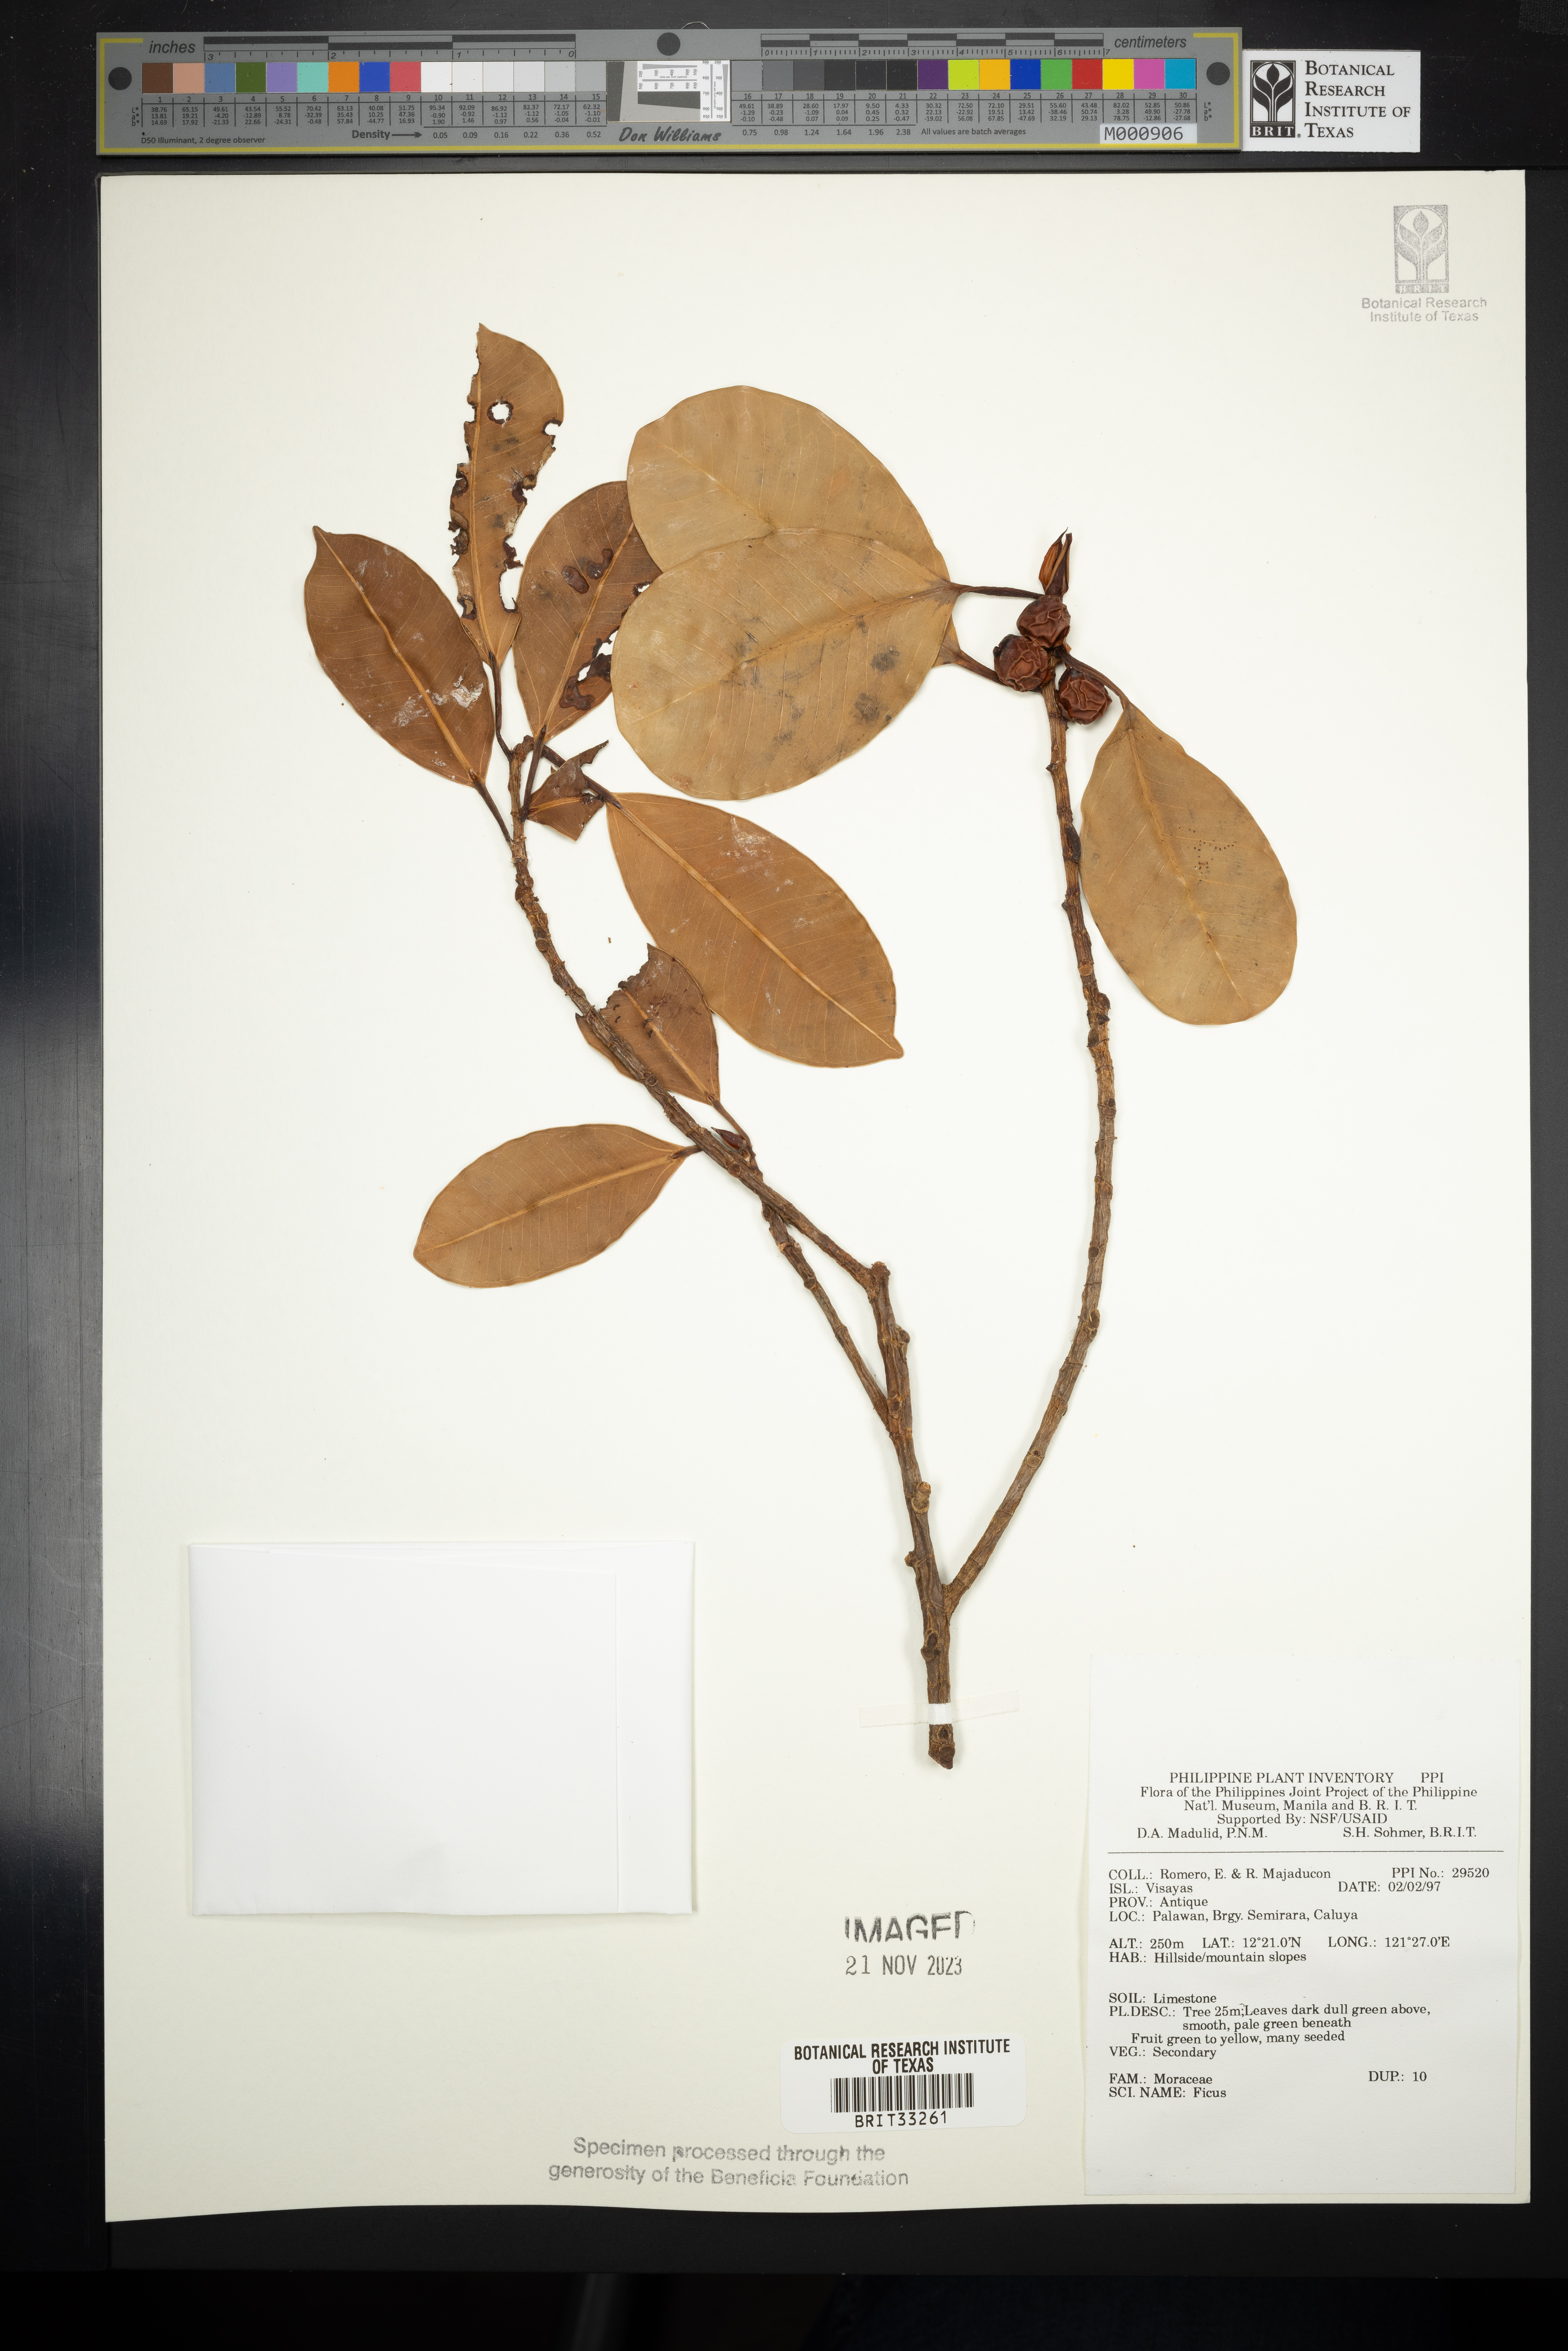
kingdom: Plantae
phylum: Tracheophyta
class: Magnoliopsida
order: Rosales
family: Moraceae
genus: Ficus
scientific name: Ficus
